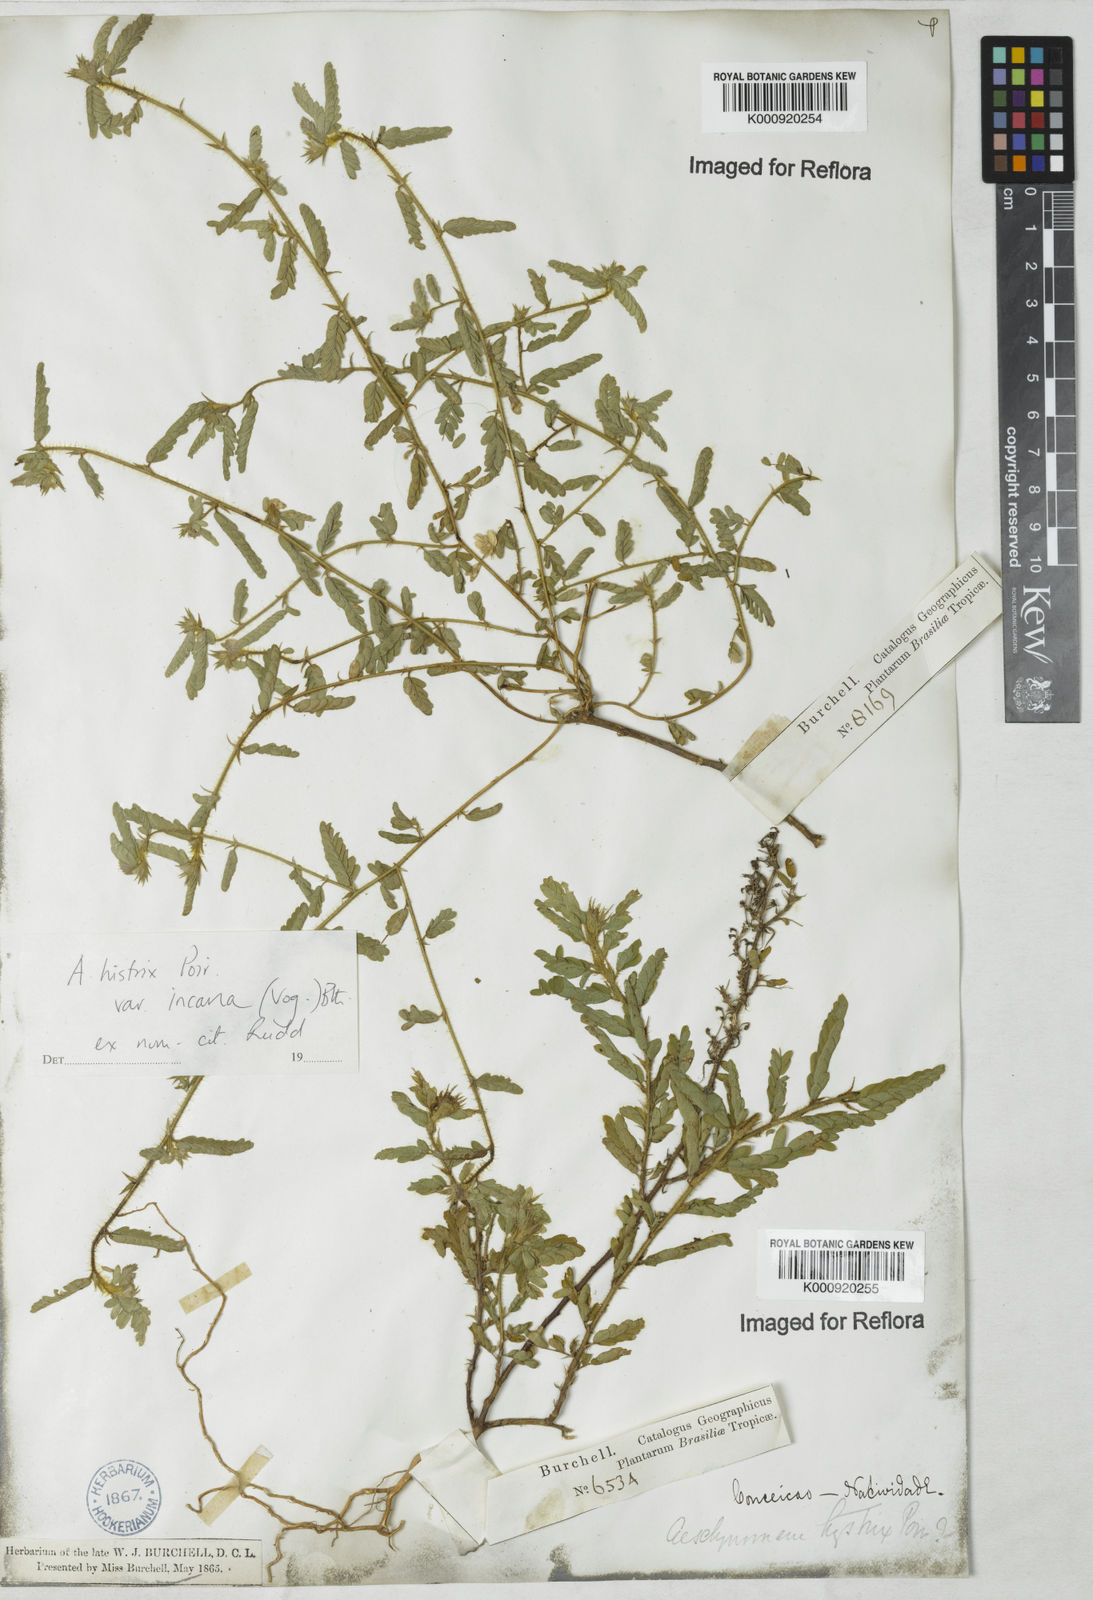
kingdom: Plantae
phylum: Tracheophyta
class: Magnoliopsida
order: Fabales
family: Fabaceae
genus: Ctenodon
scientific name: Ctenodon histrix
